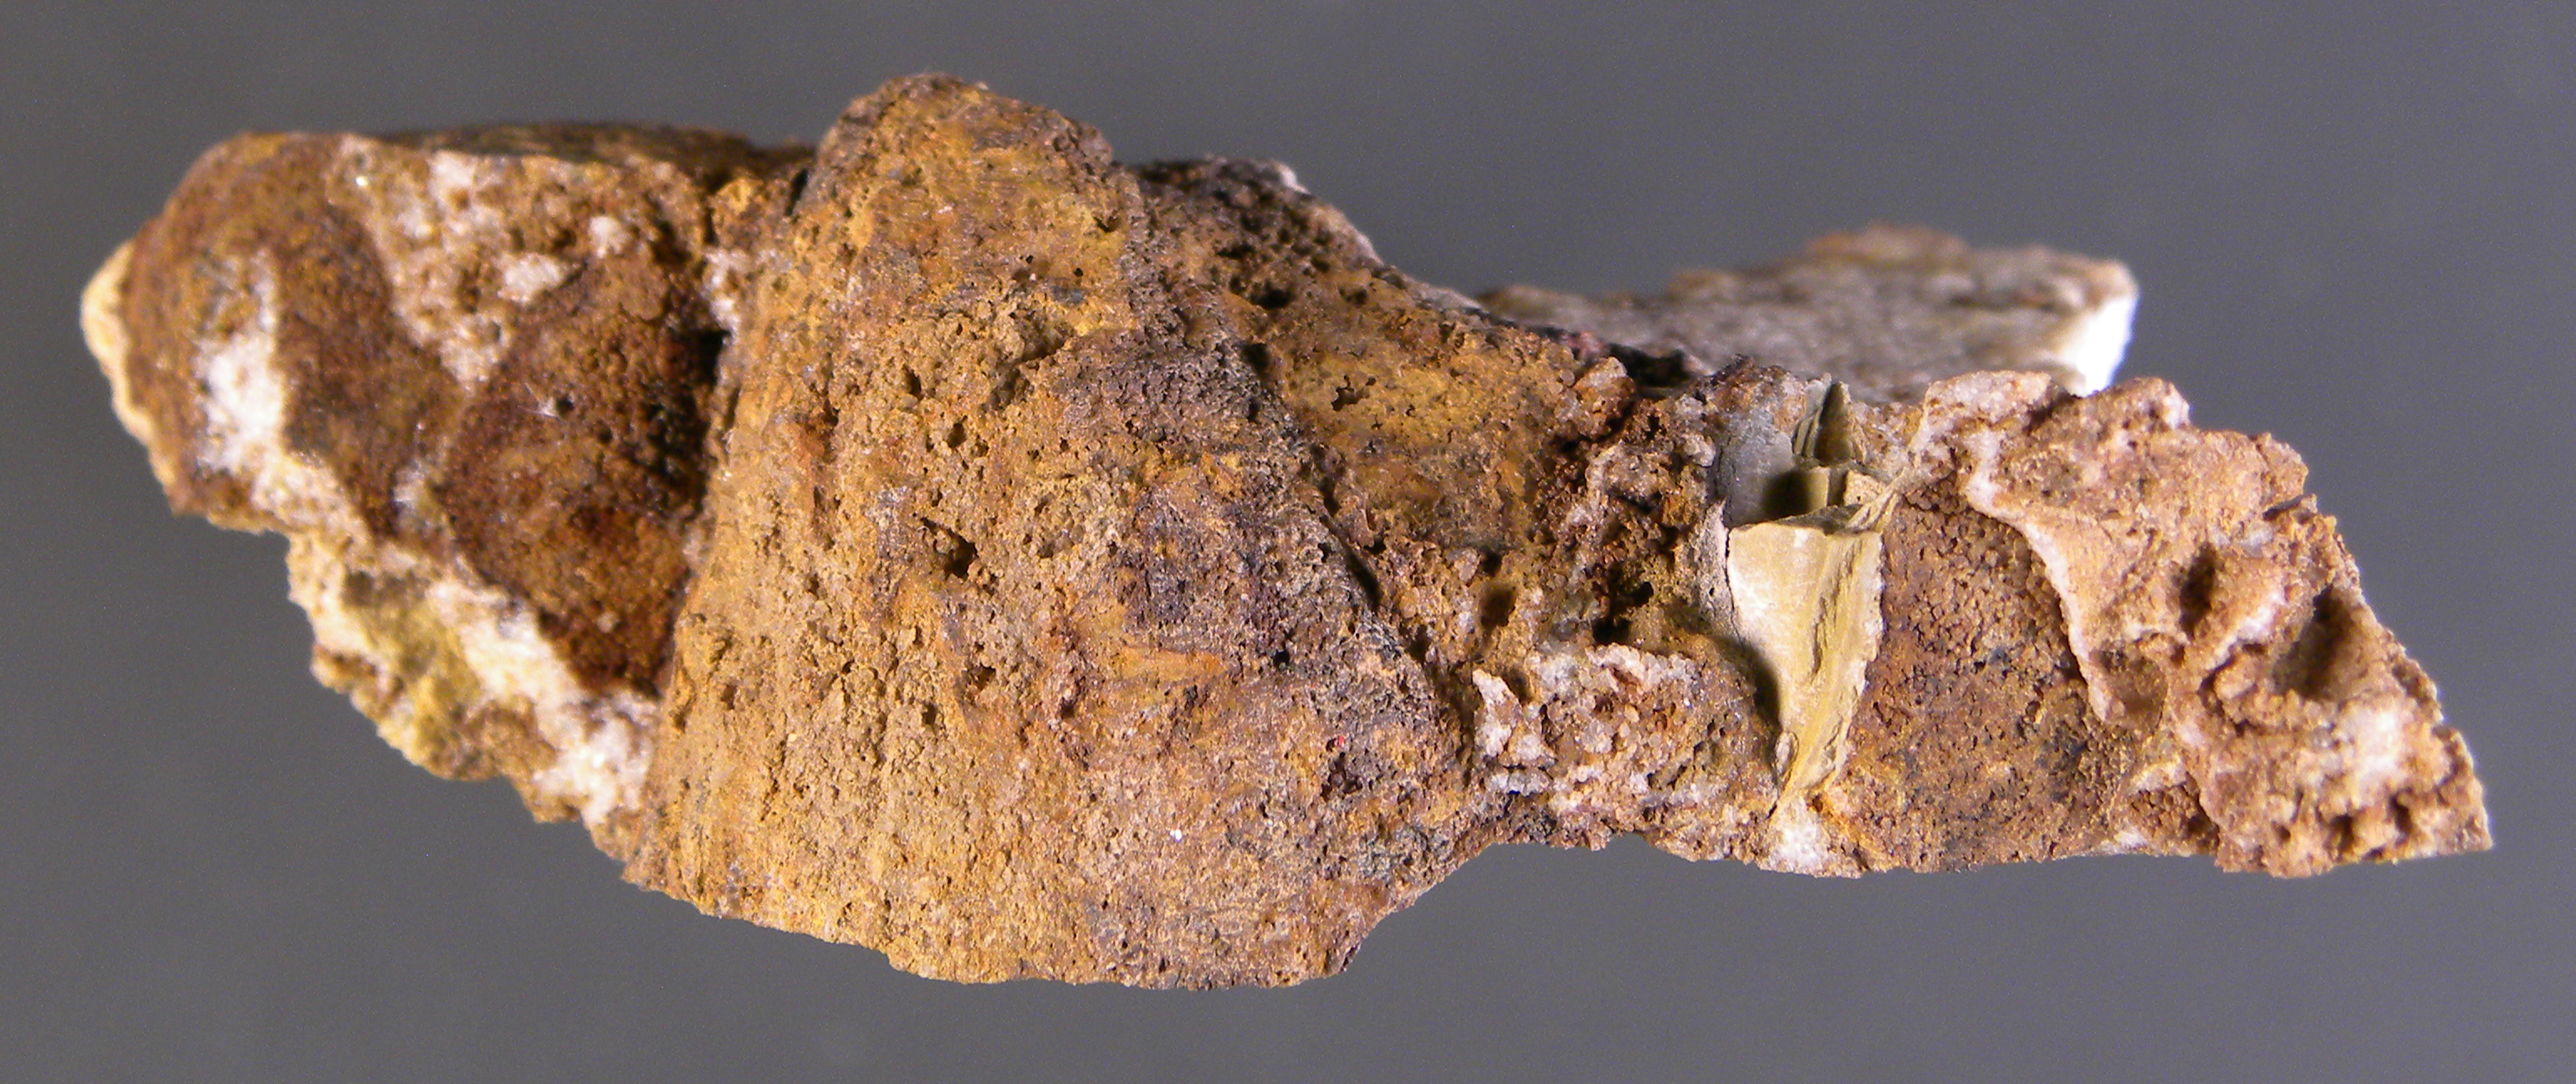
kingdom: Animalia
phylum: Cnidaria
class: Anthozoa
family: Auloporidae
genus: Aulopora
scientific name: Aulopora
